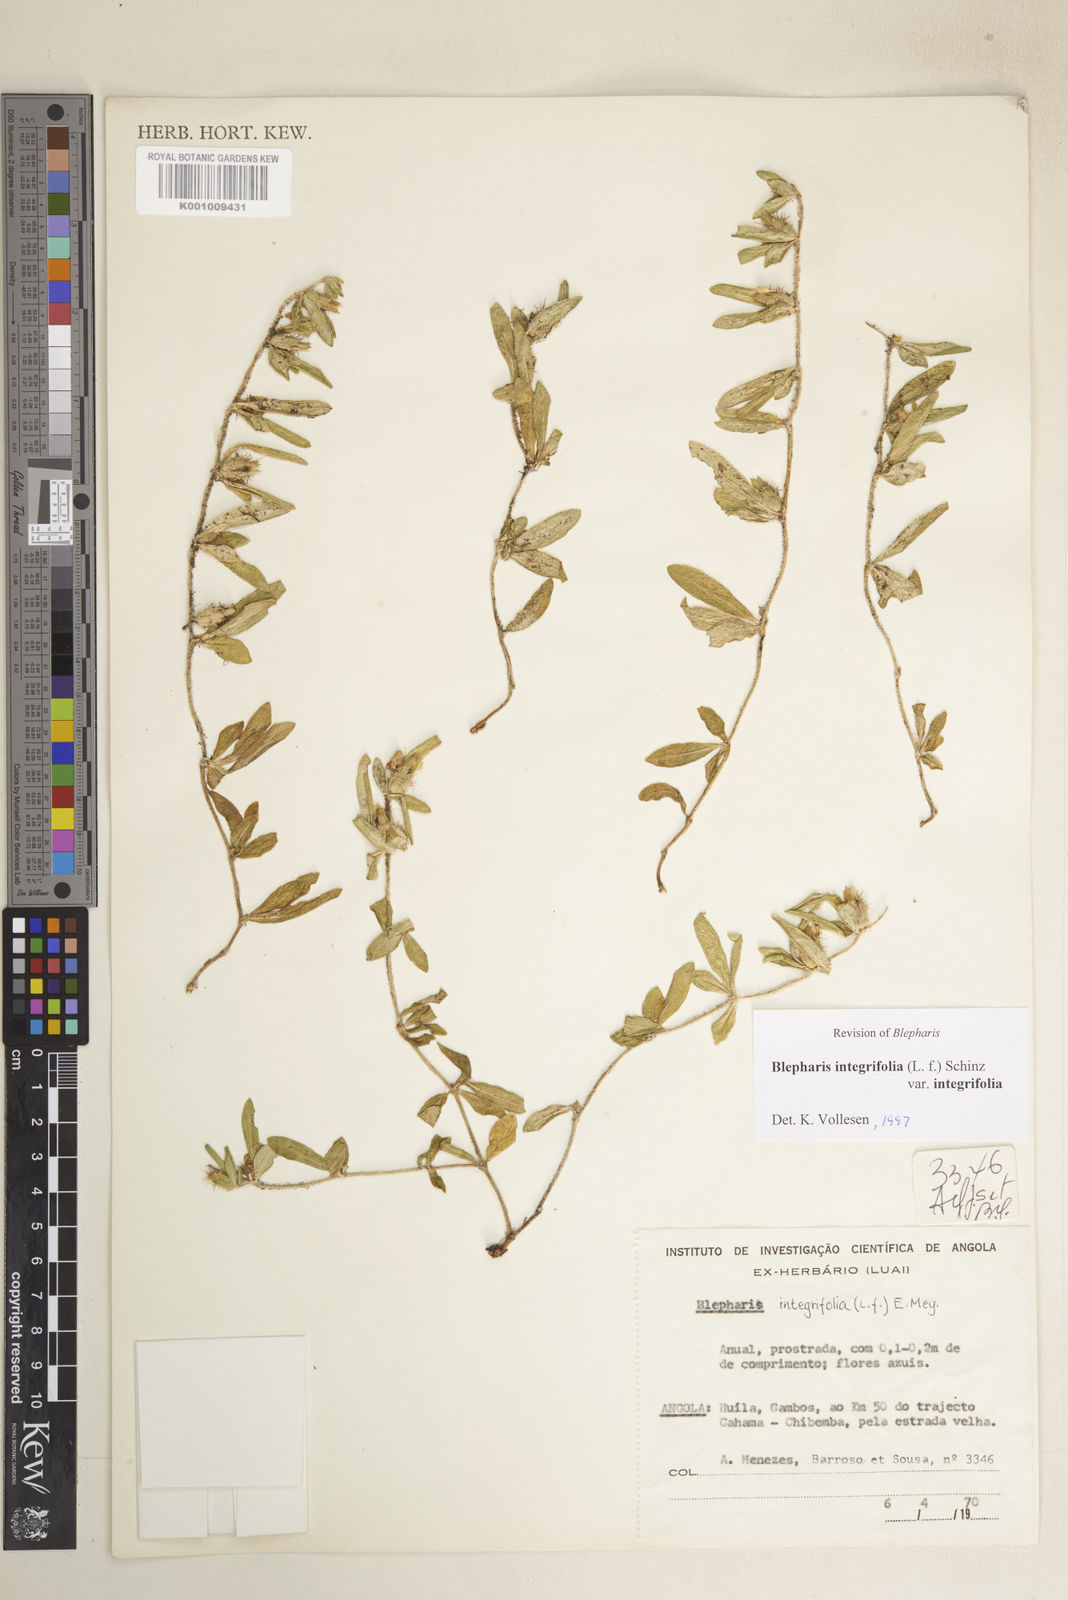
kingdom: Plantae
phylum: Tracheophyta
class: Magnoliopsida
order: Lamiales
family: Acanthaceae
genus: Blepharis
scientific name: Blepharis
